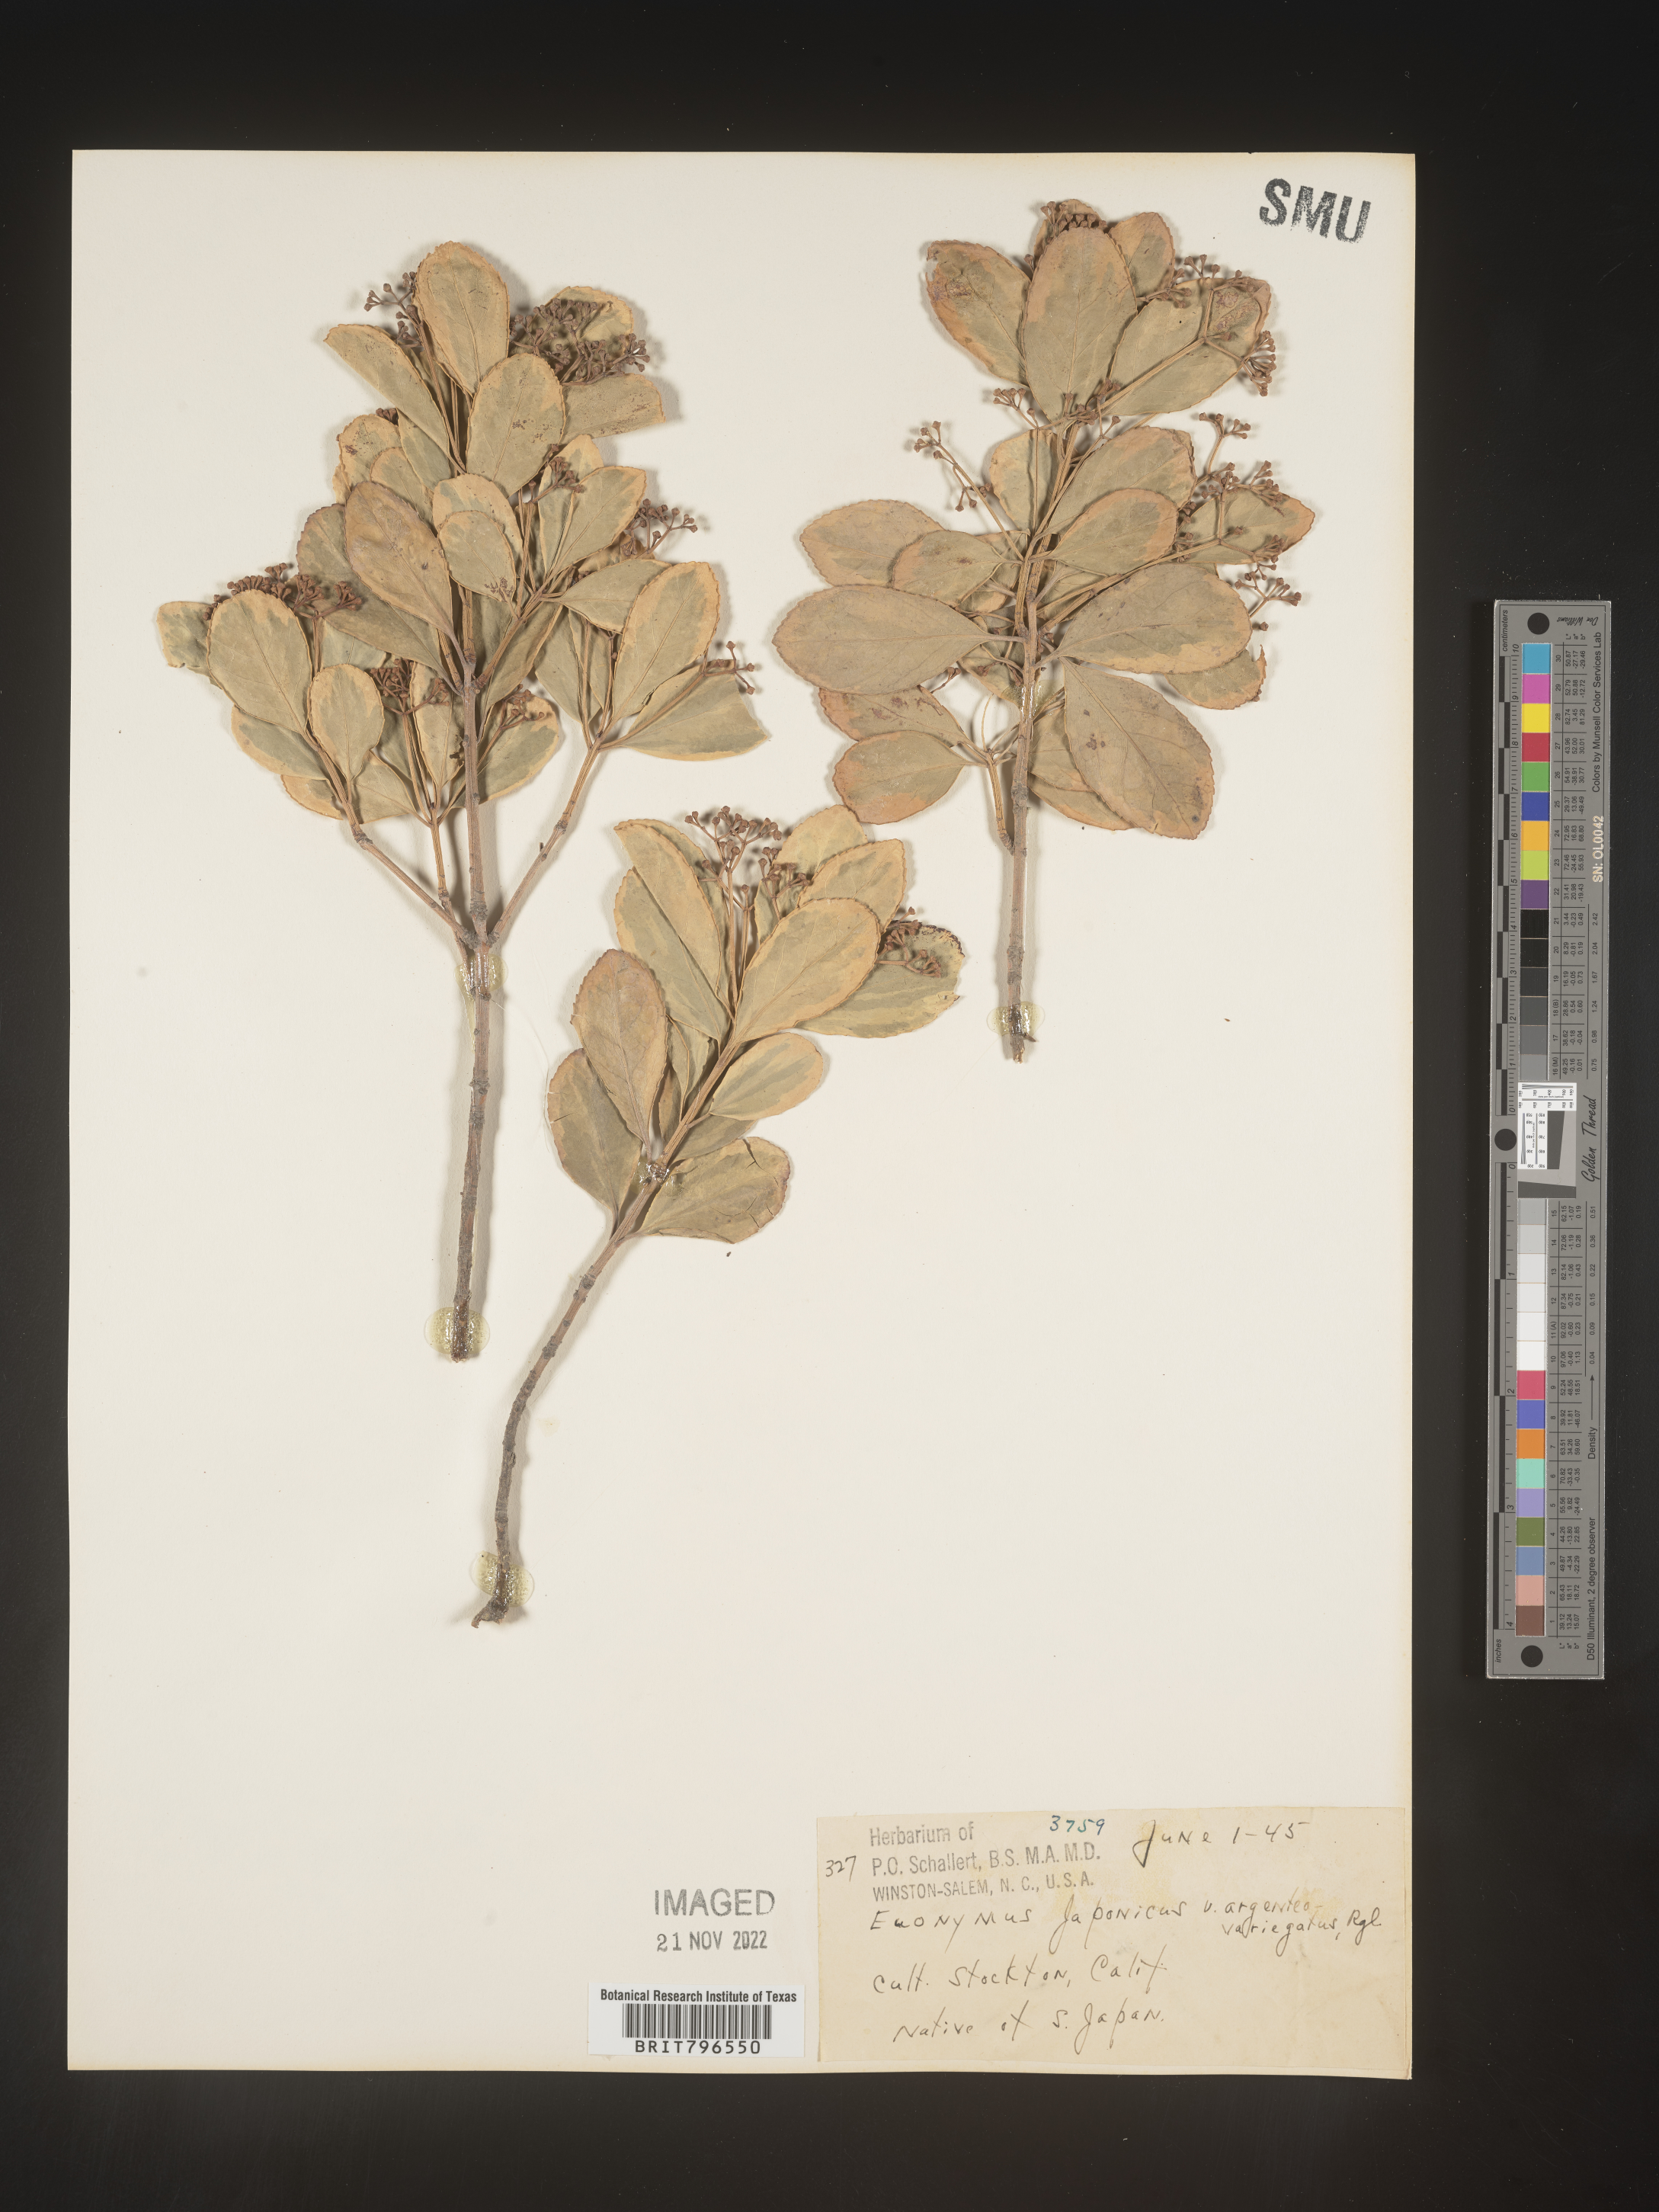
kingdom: Plantae
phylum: Tracheophyta
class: Magnoliopsida
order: Celastrales
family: Celastraceae
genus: Euonymus
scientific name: Euonymus
